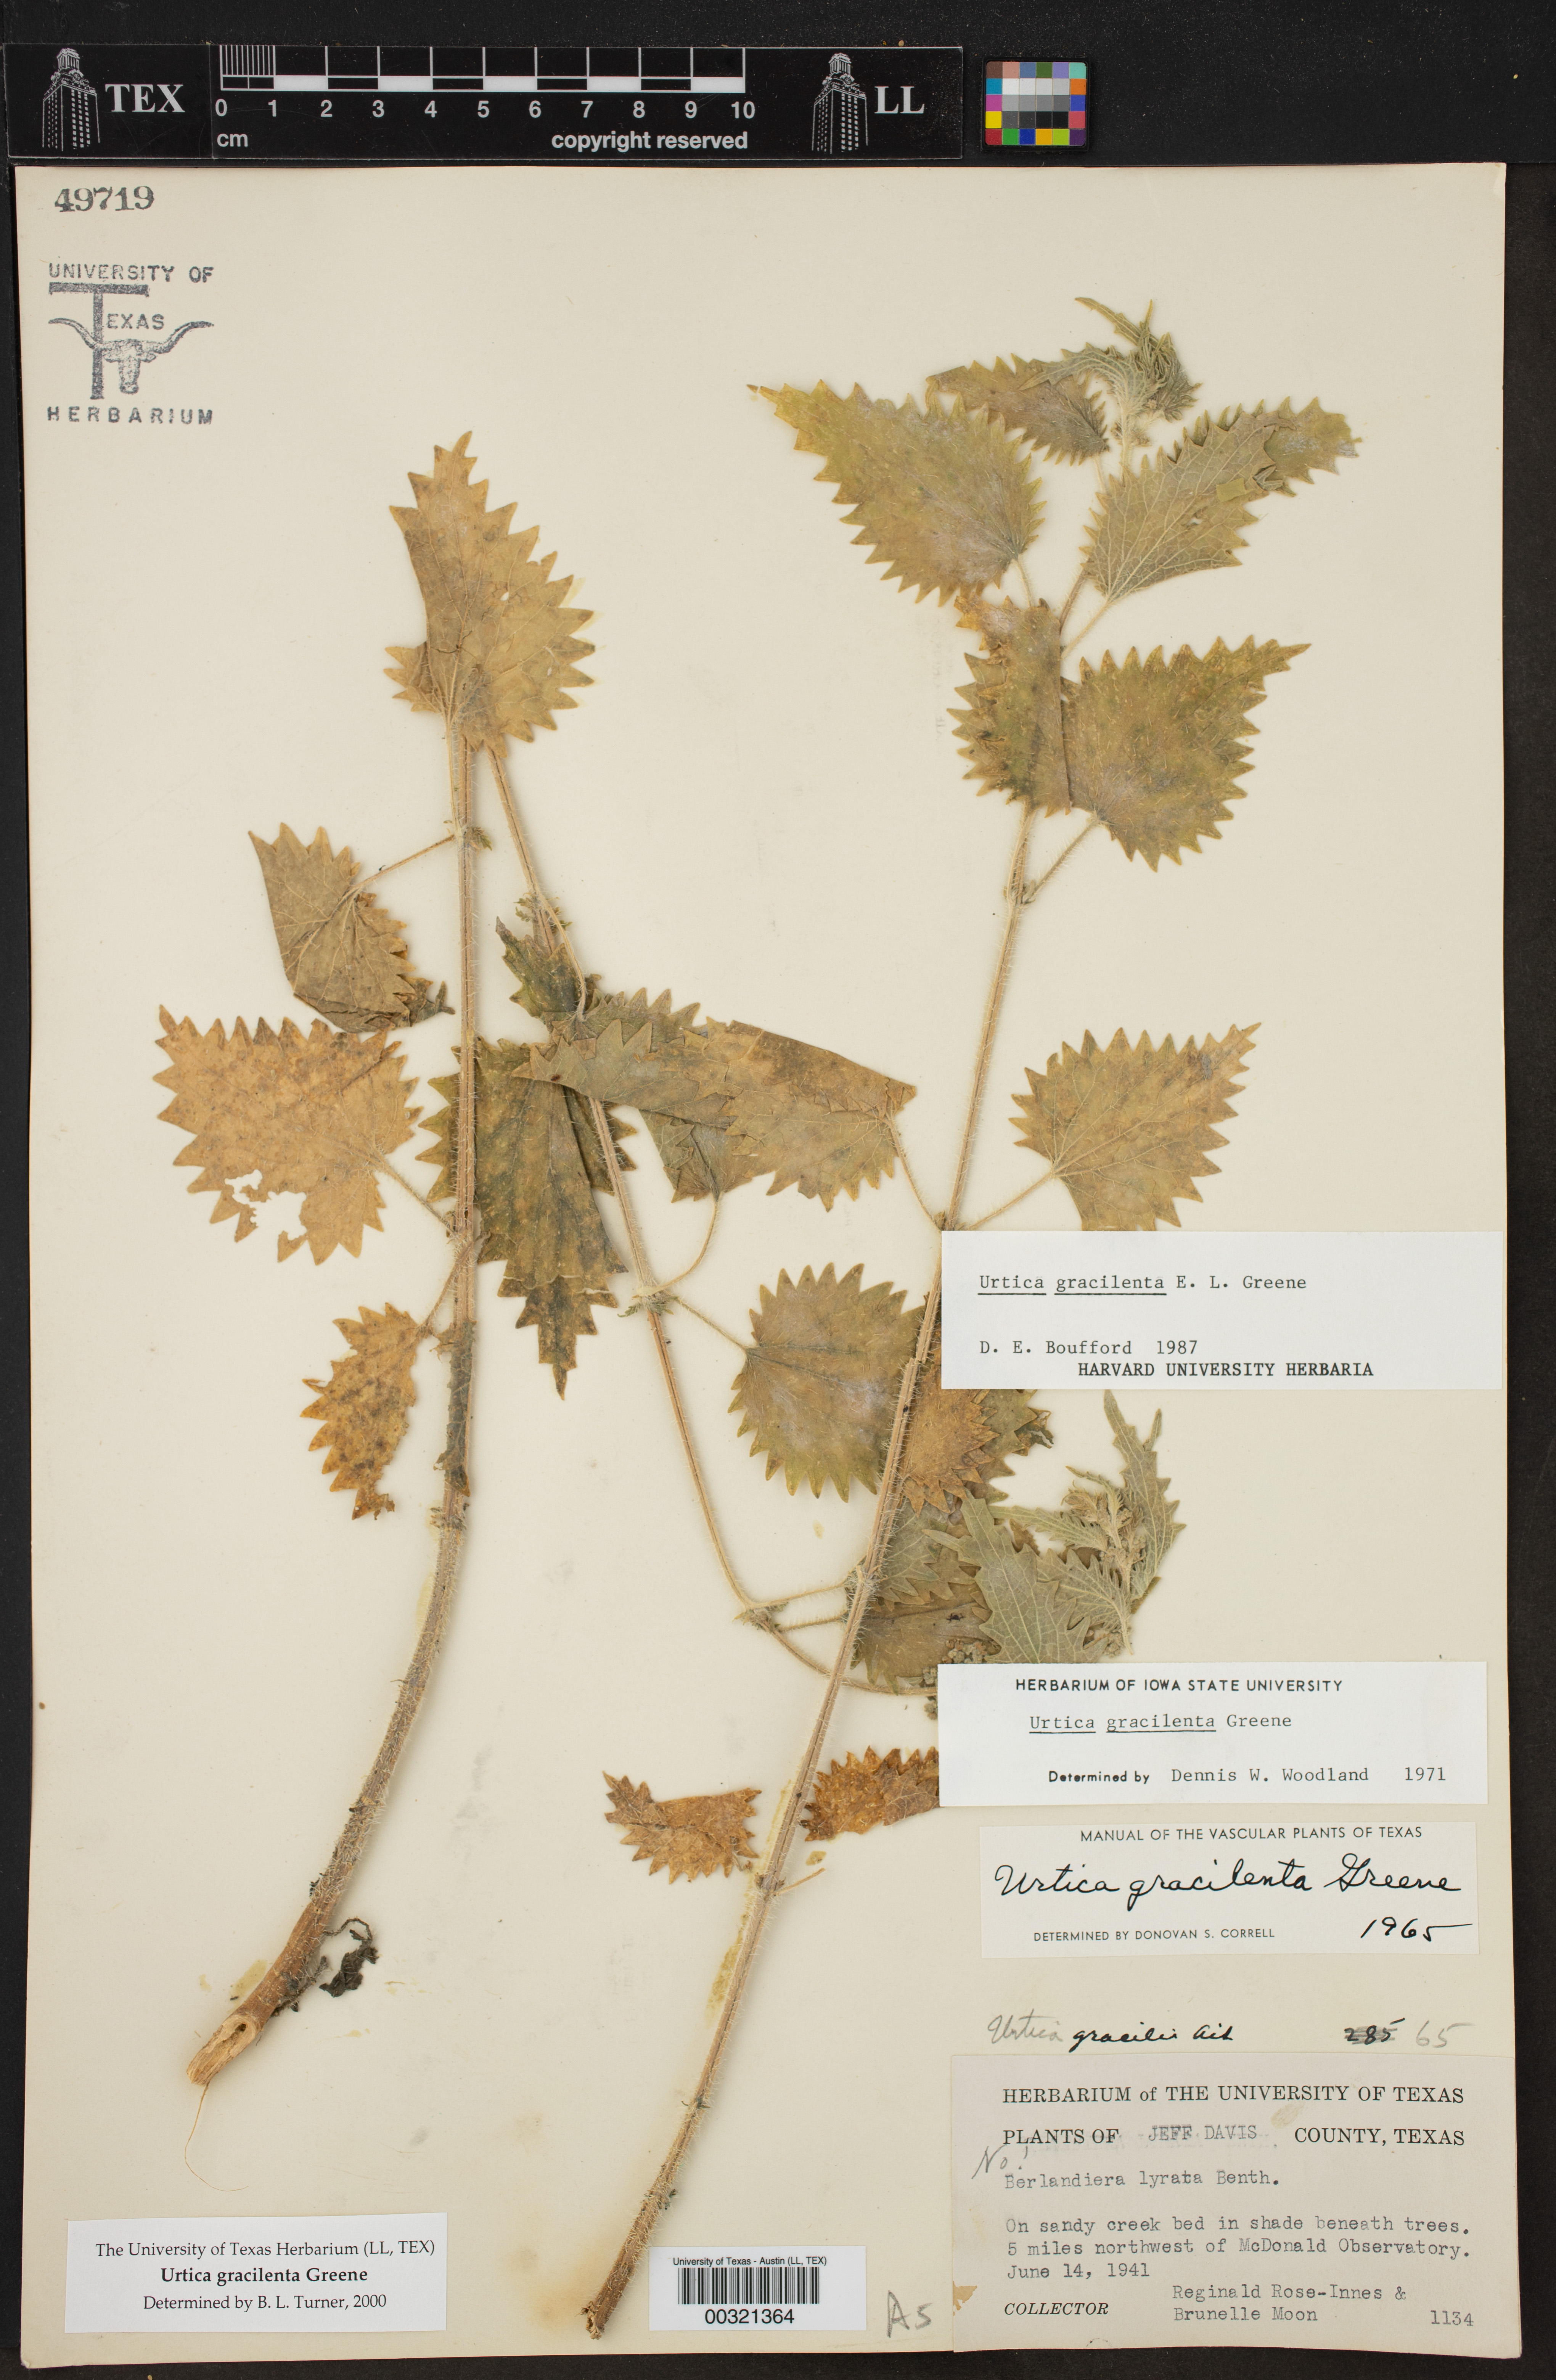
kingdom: Plantae
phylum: Tracheophyta
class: Magnoliopsida
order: Rosales
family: Urticaceae
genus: Urtica
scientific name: Urtica gracilenta
